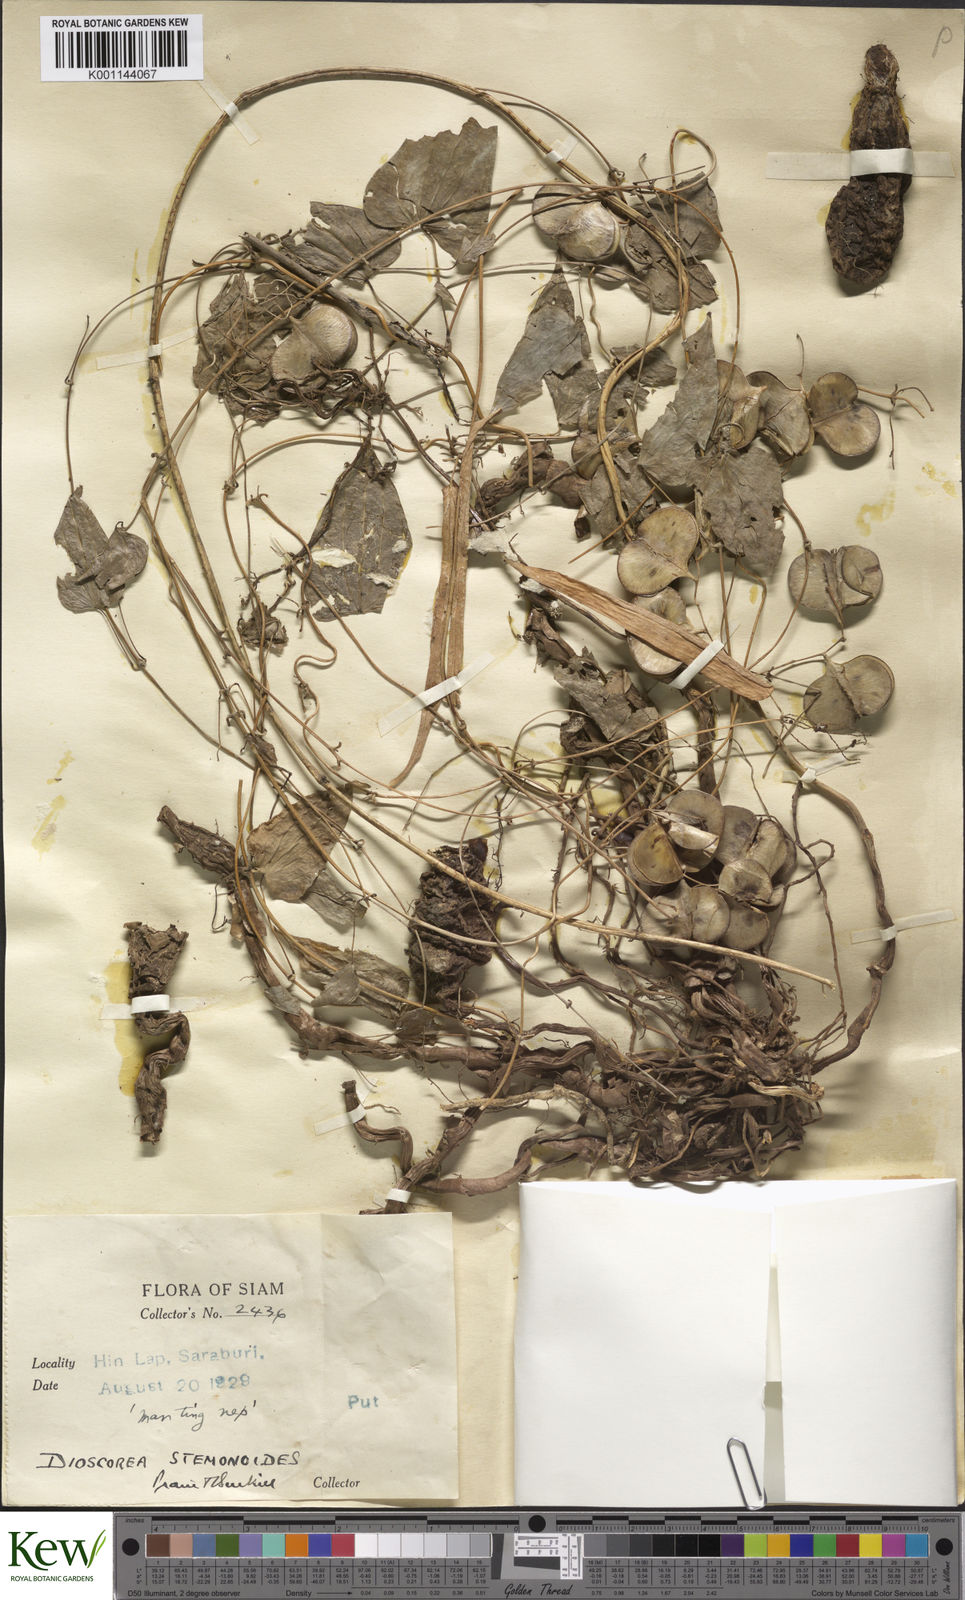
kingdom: Plantae
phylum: Tracheophyta
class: Liliopsida
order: Dioscoreales
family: Dioscoreaceae
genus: Dioscorea
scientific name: Dioscorea stemonoides
